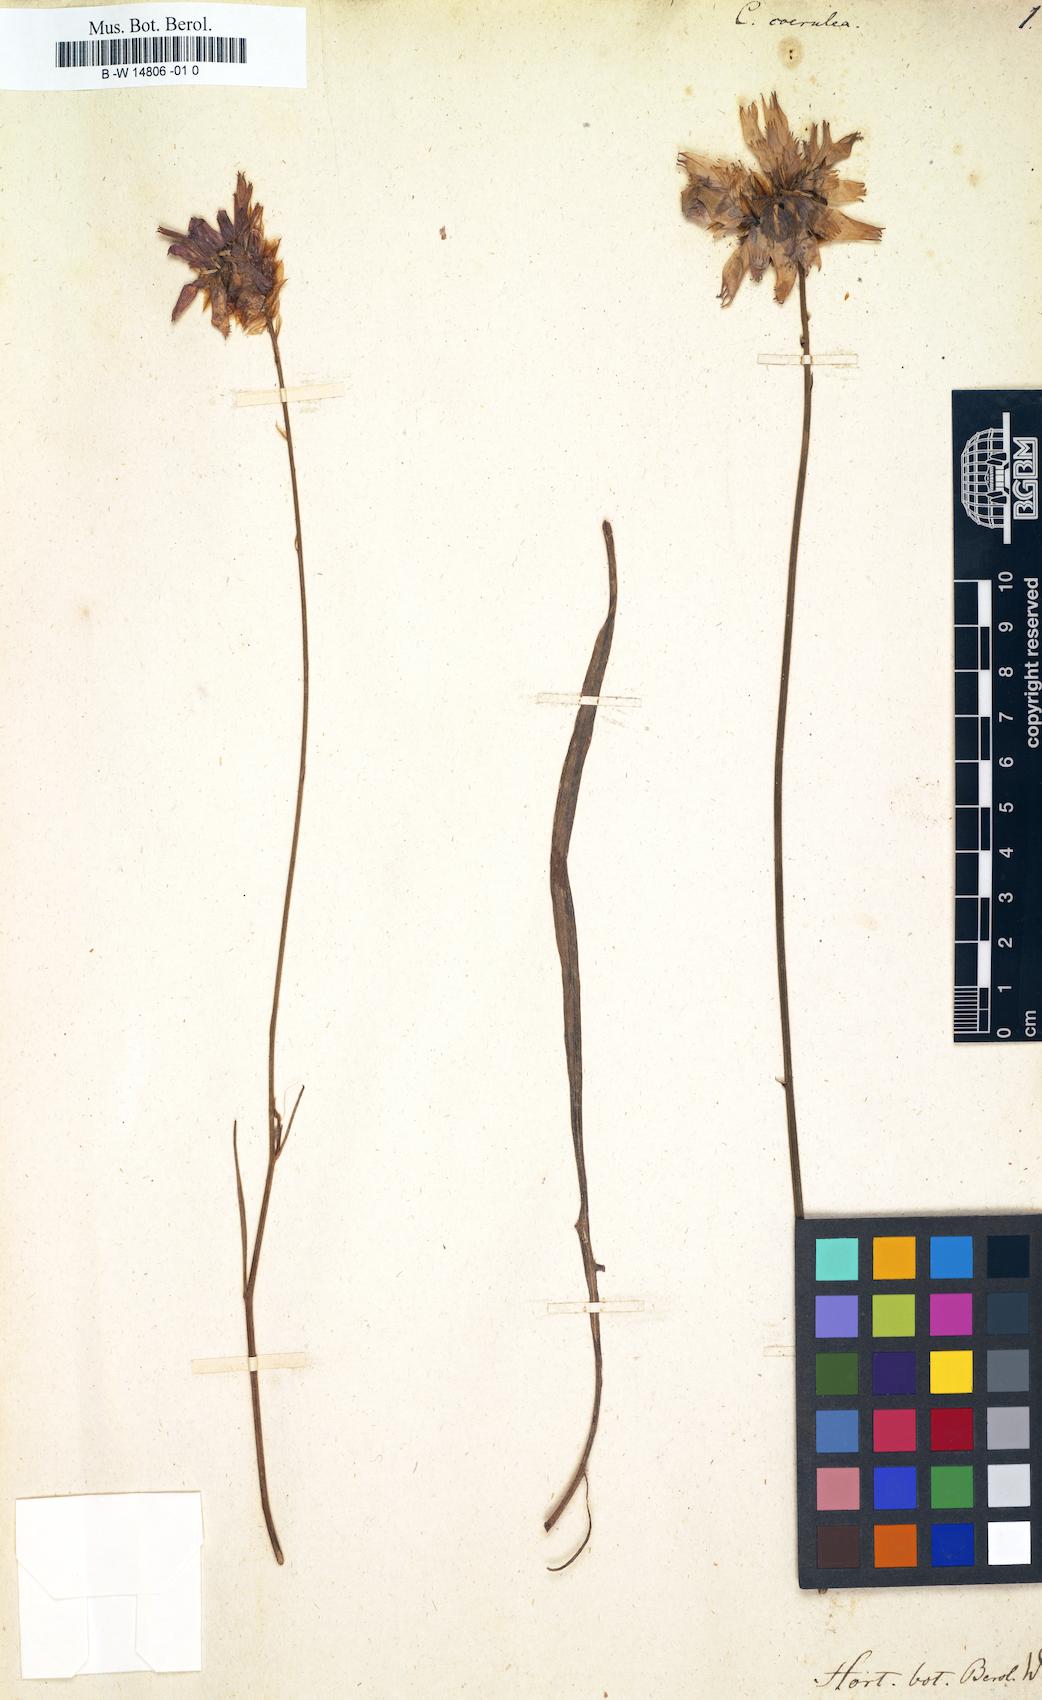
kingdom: Plantae
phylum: Tracheophyta
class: Magnoliopsida
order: Asterales
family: Asteraceae
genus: Catananche
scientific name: Catananche caerulea
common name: Blue cupidone
